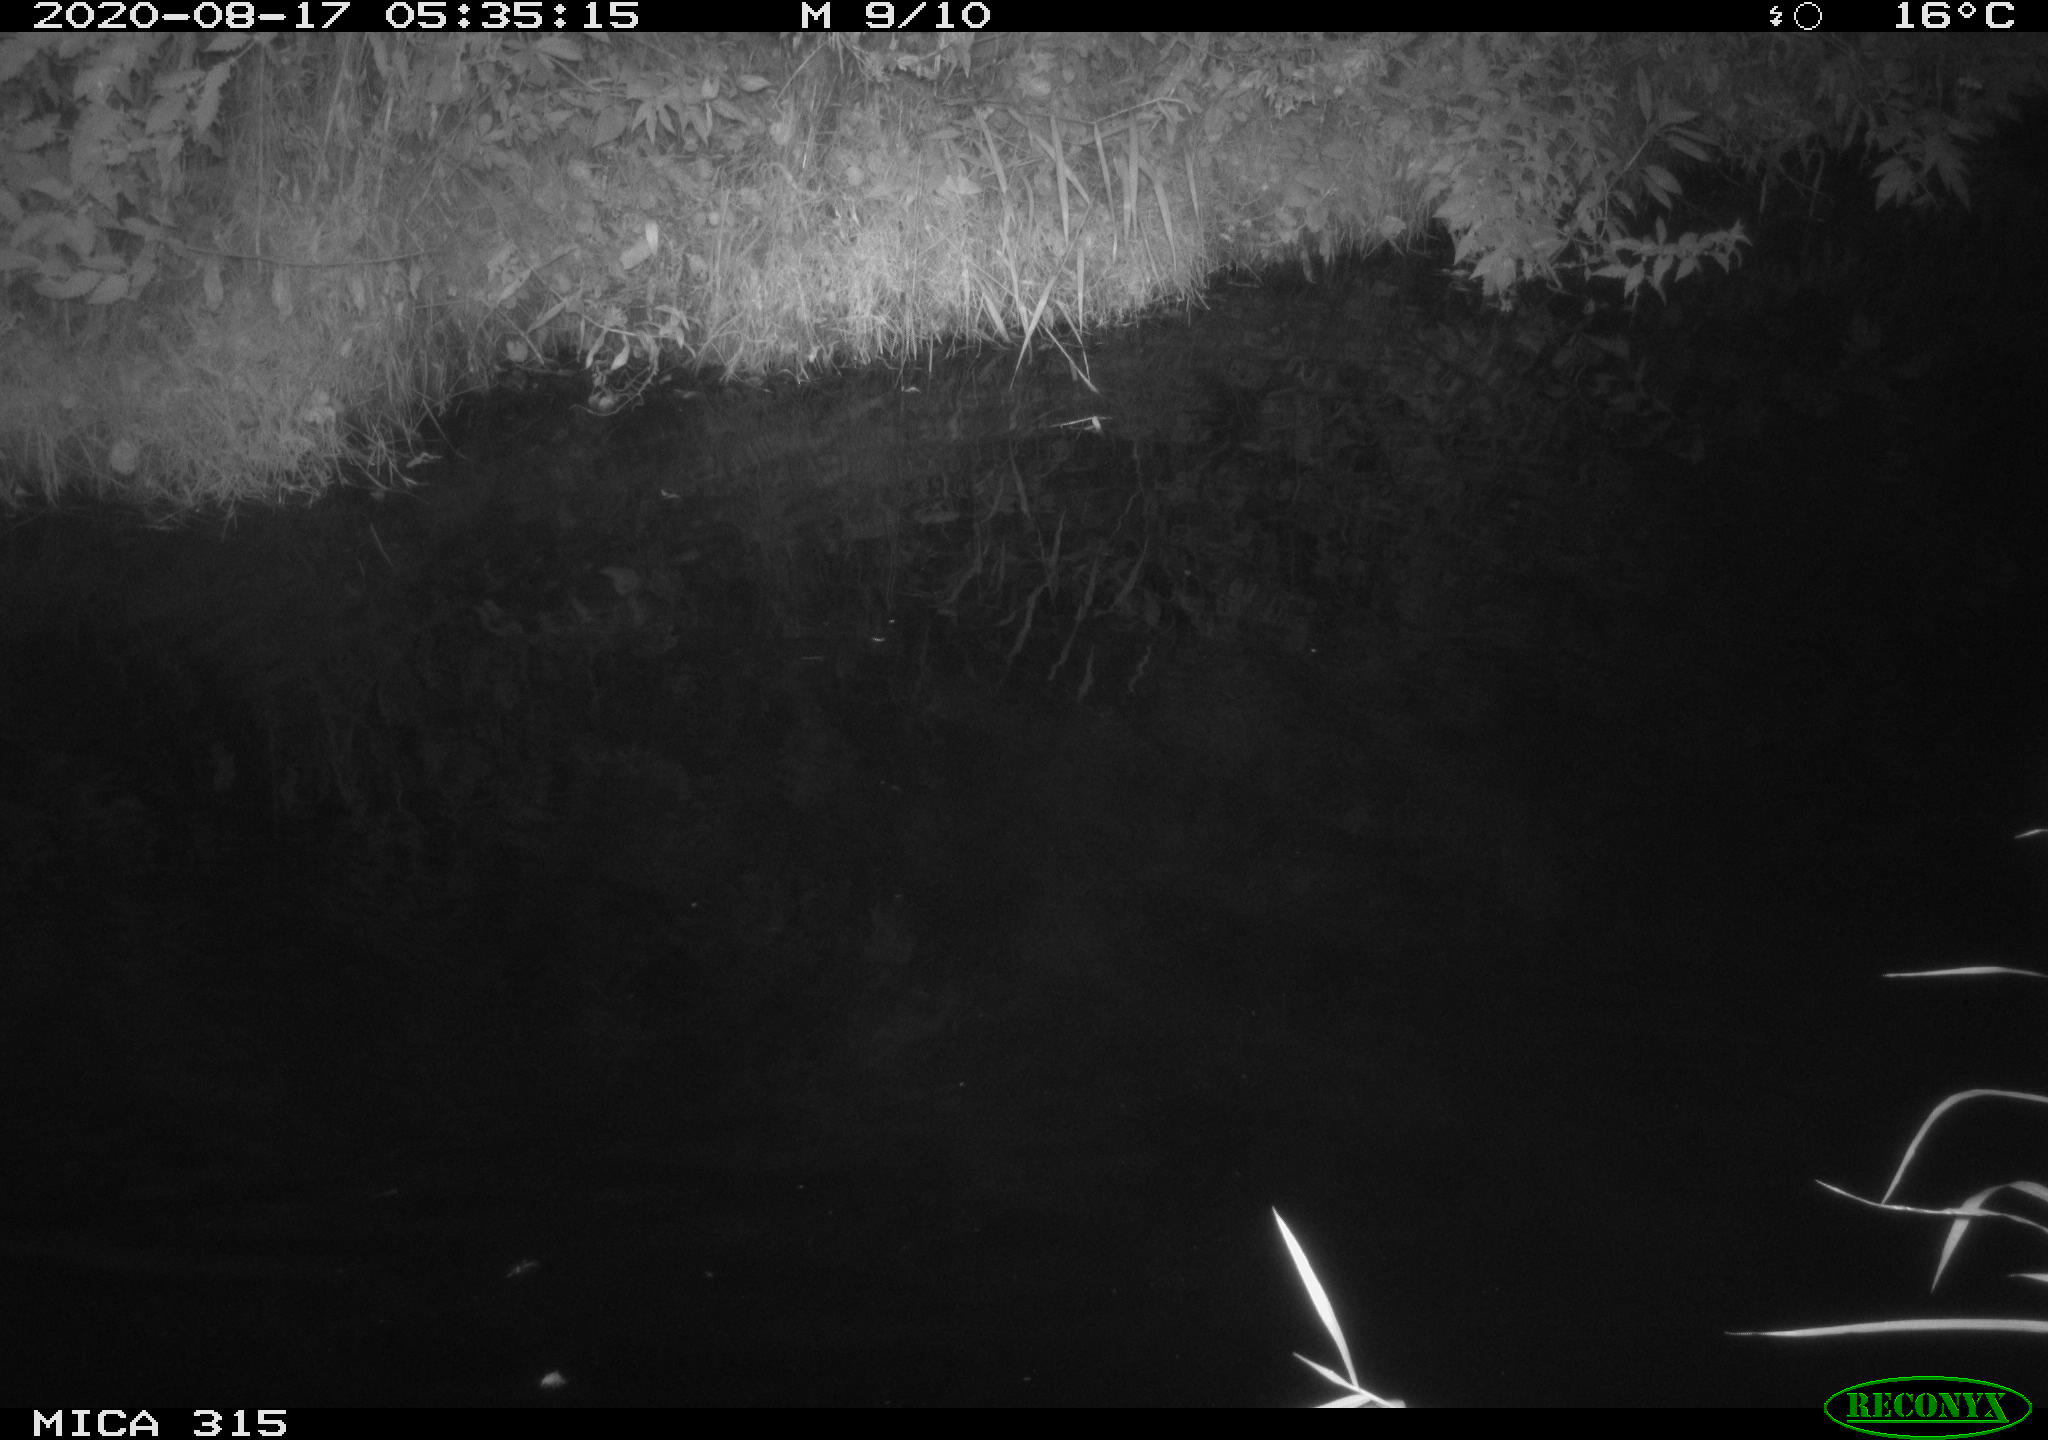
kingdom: Animalia
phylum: Chordata
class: Aves
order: Anseriformes
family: Anatidae
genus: Anas
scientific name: Anas platyrhynchos
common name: Mallard
